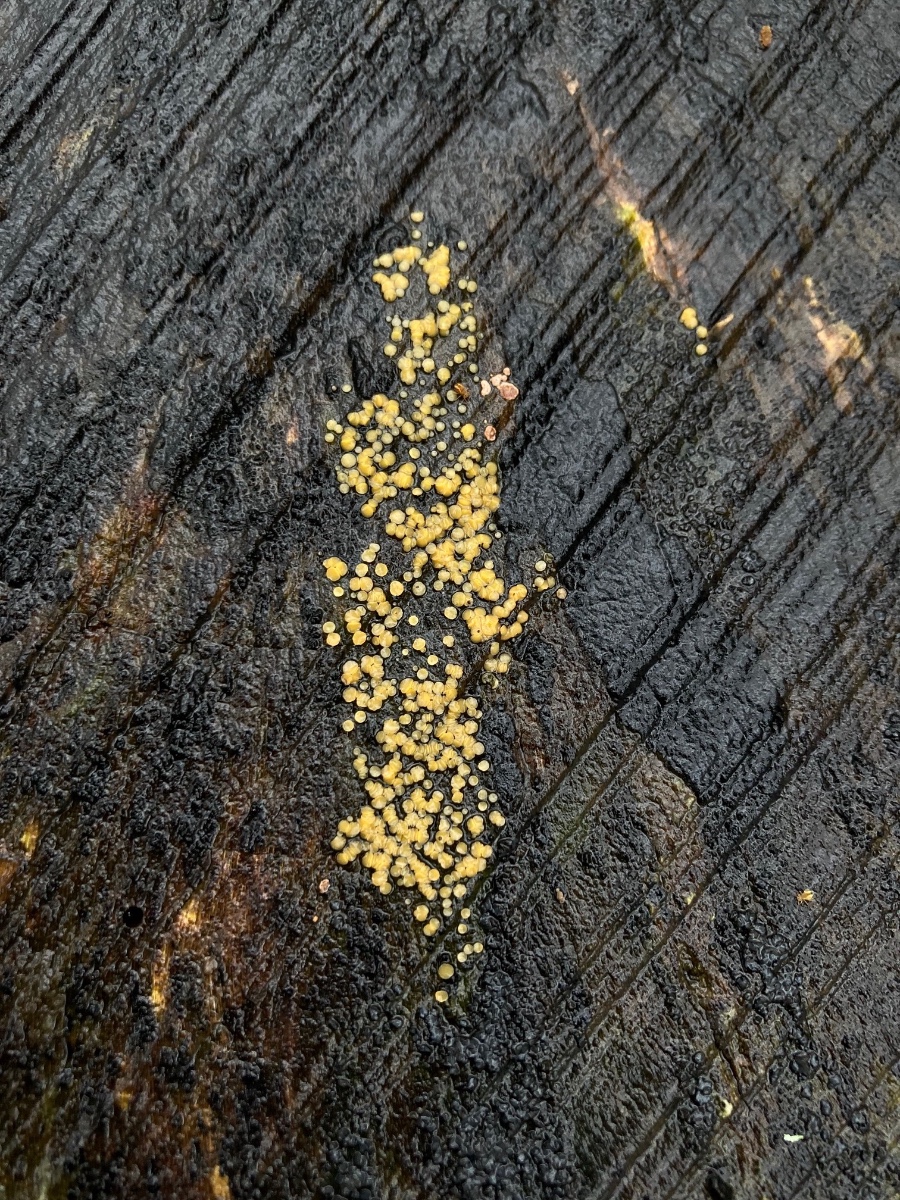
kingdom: Fungi
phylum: Ascomycota
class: Leotiomycetes
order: Helotiales
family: Helotiaceae
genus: Bispora
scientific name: Bispora pallescens
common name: måtte-snitskive
